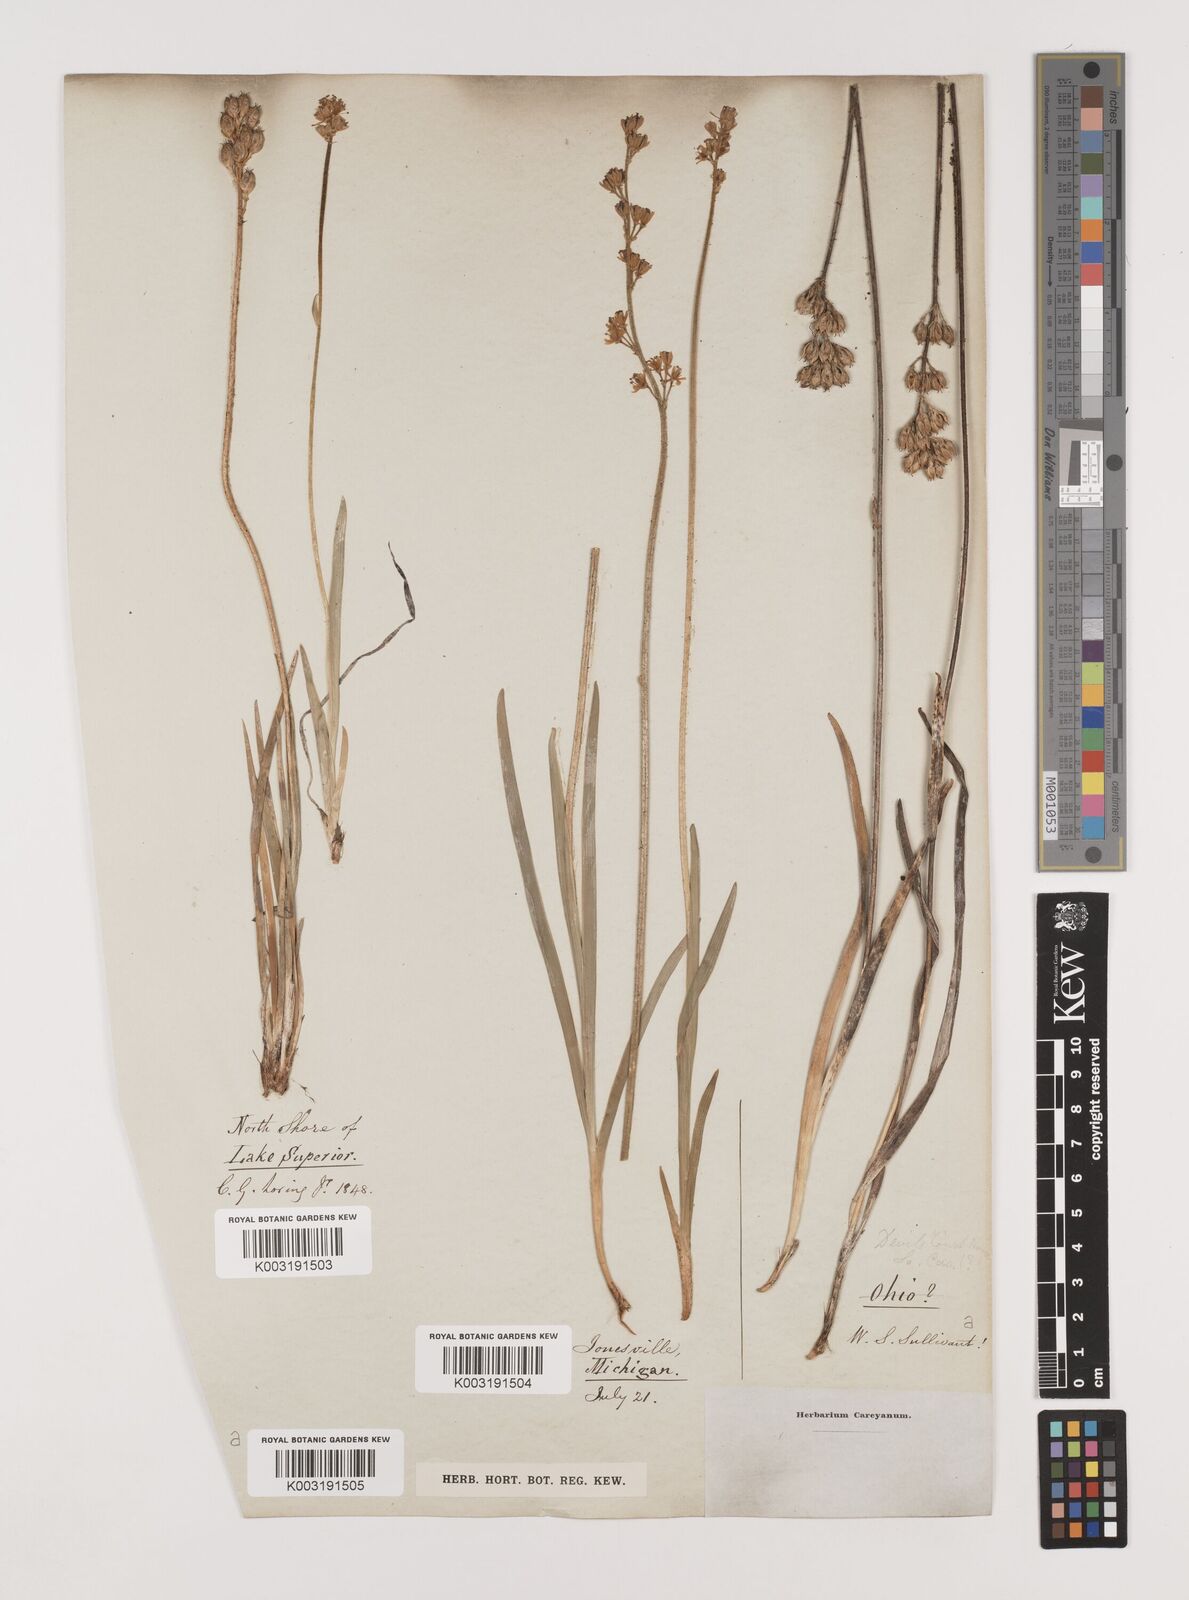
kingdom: Plantae
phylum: Tracheophyta
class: Liliopsida
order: Alismatales
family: Tofieldiaceae
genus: Tofieldia
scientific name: Tofieldia
